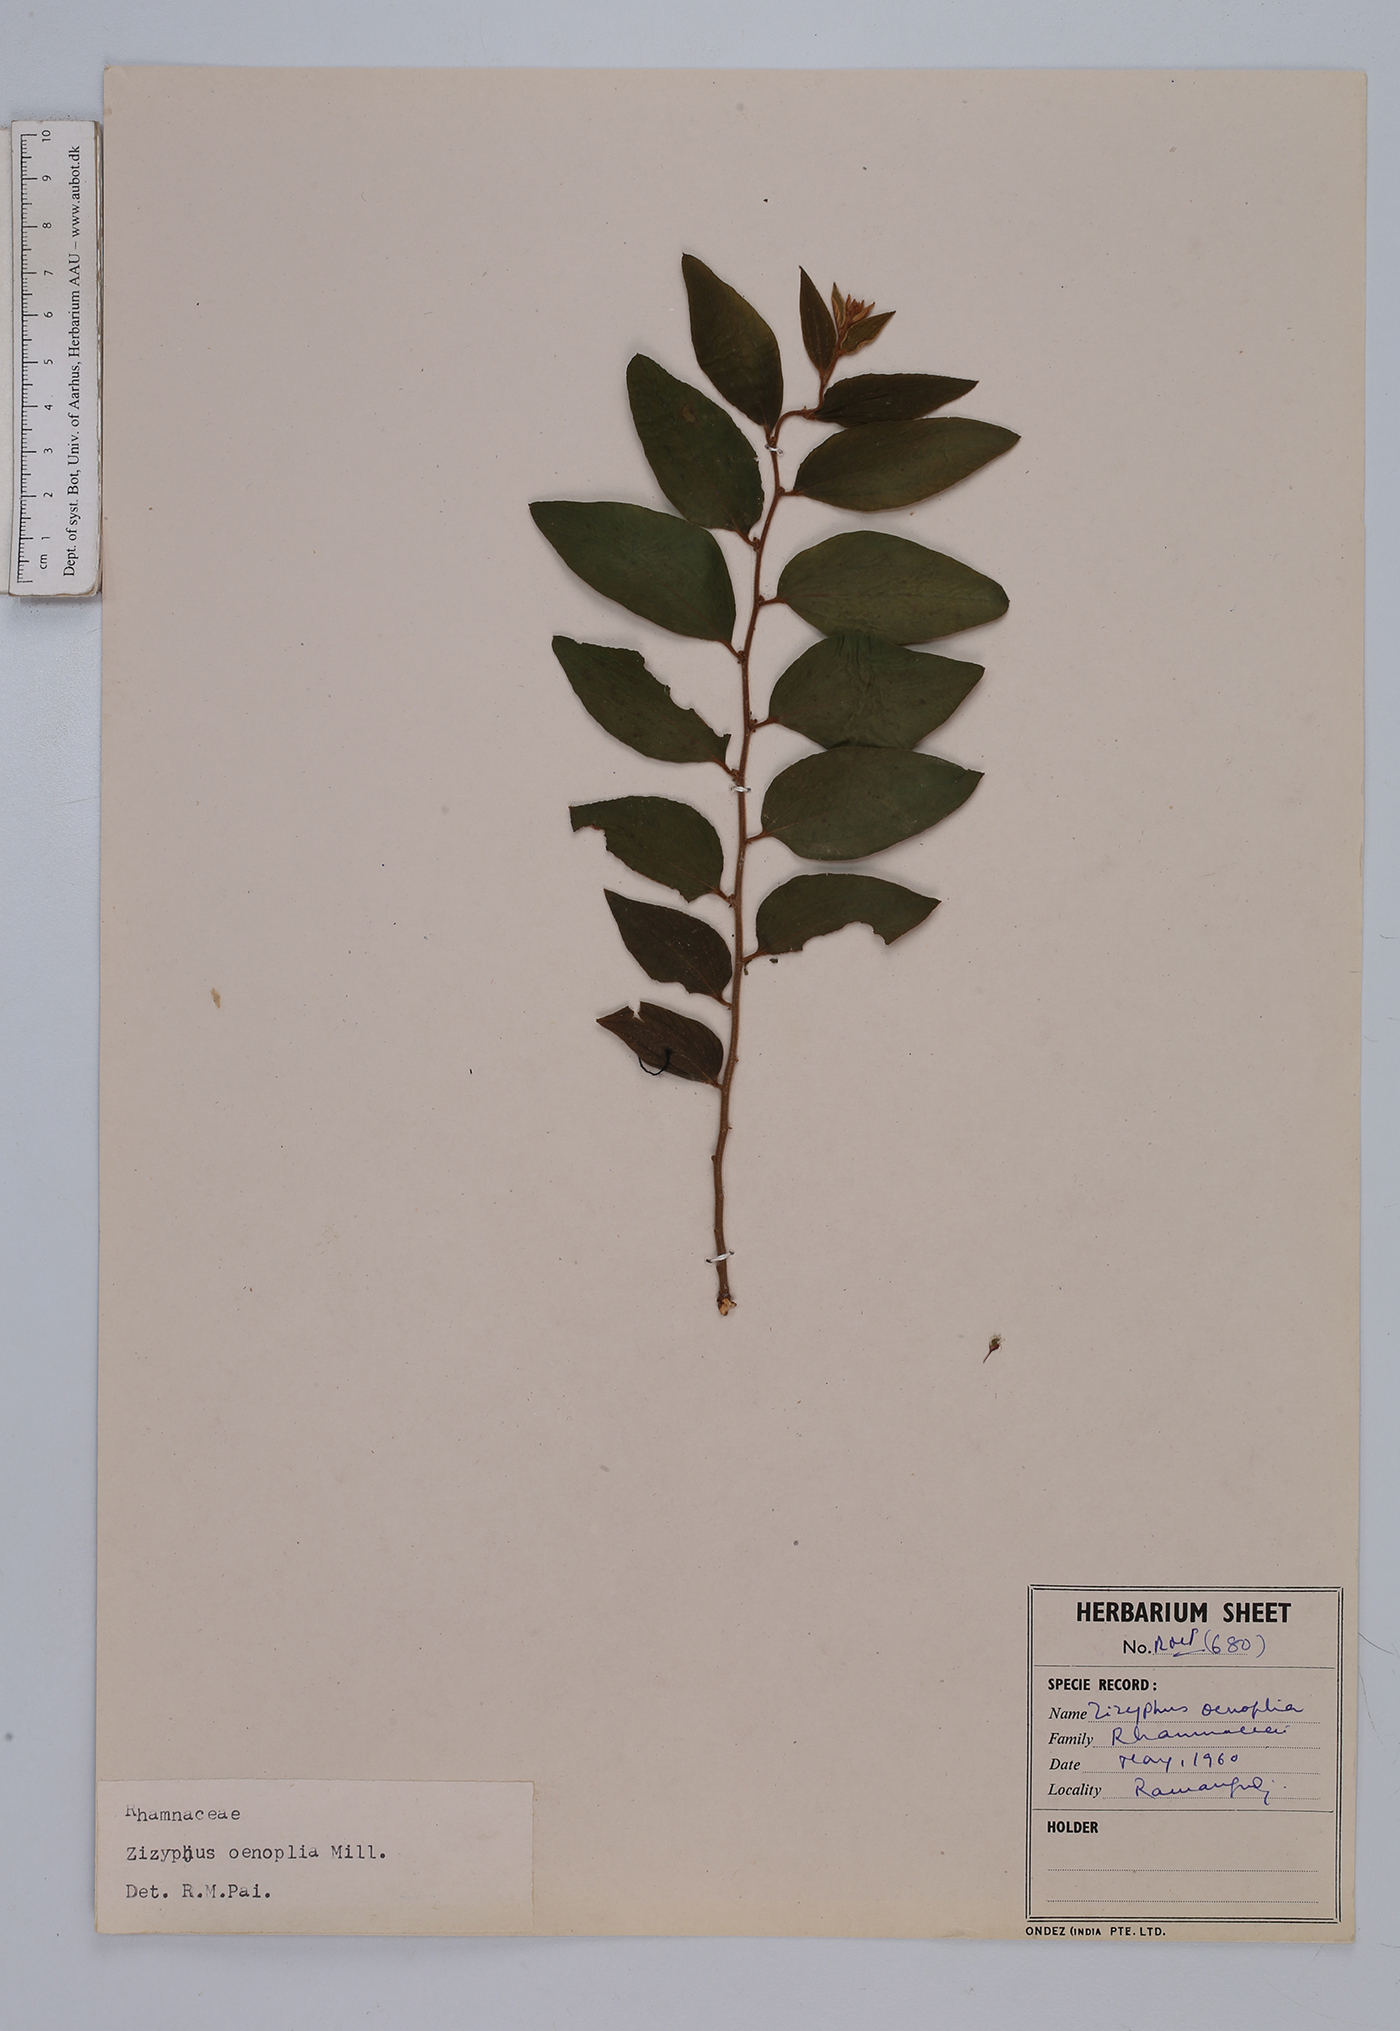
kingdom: Plantae
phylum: Tracheophyta
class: Magnoliopsida
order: Rosales
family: Rhamnaceae
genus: Ziziphus
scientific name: Ziziphus oenopolia
